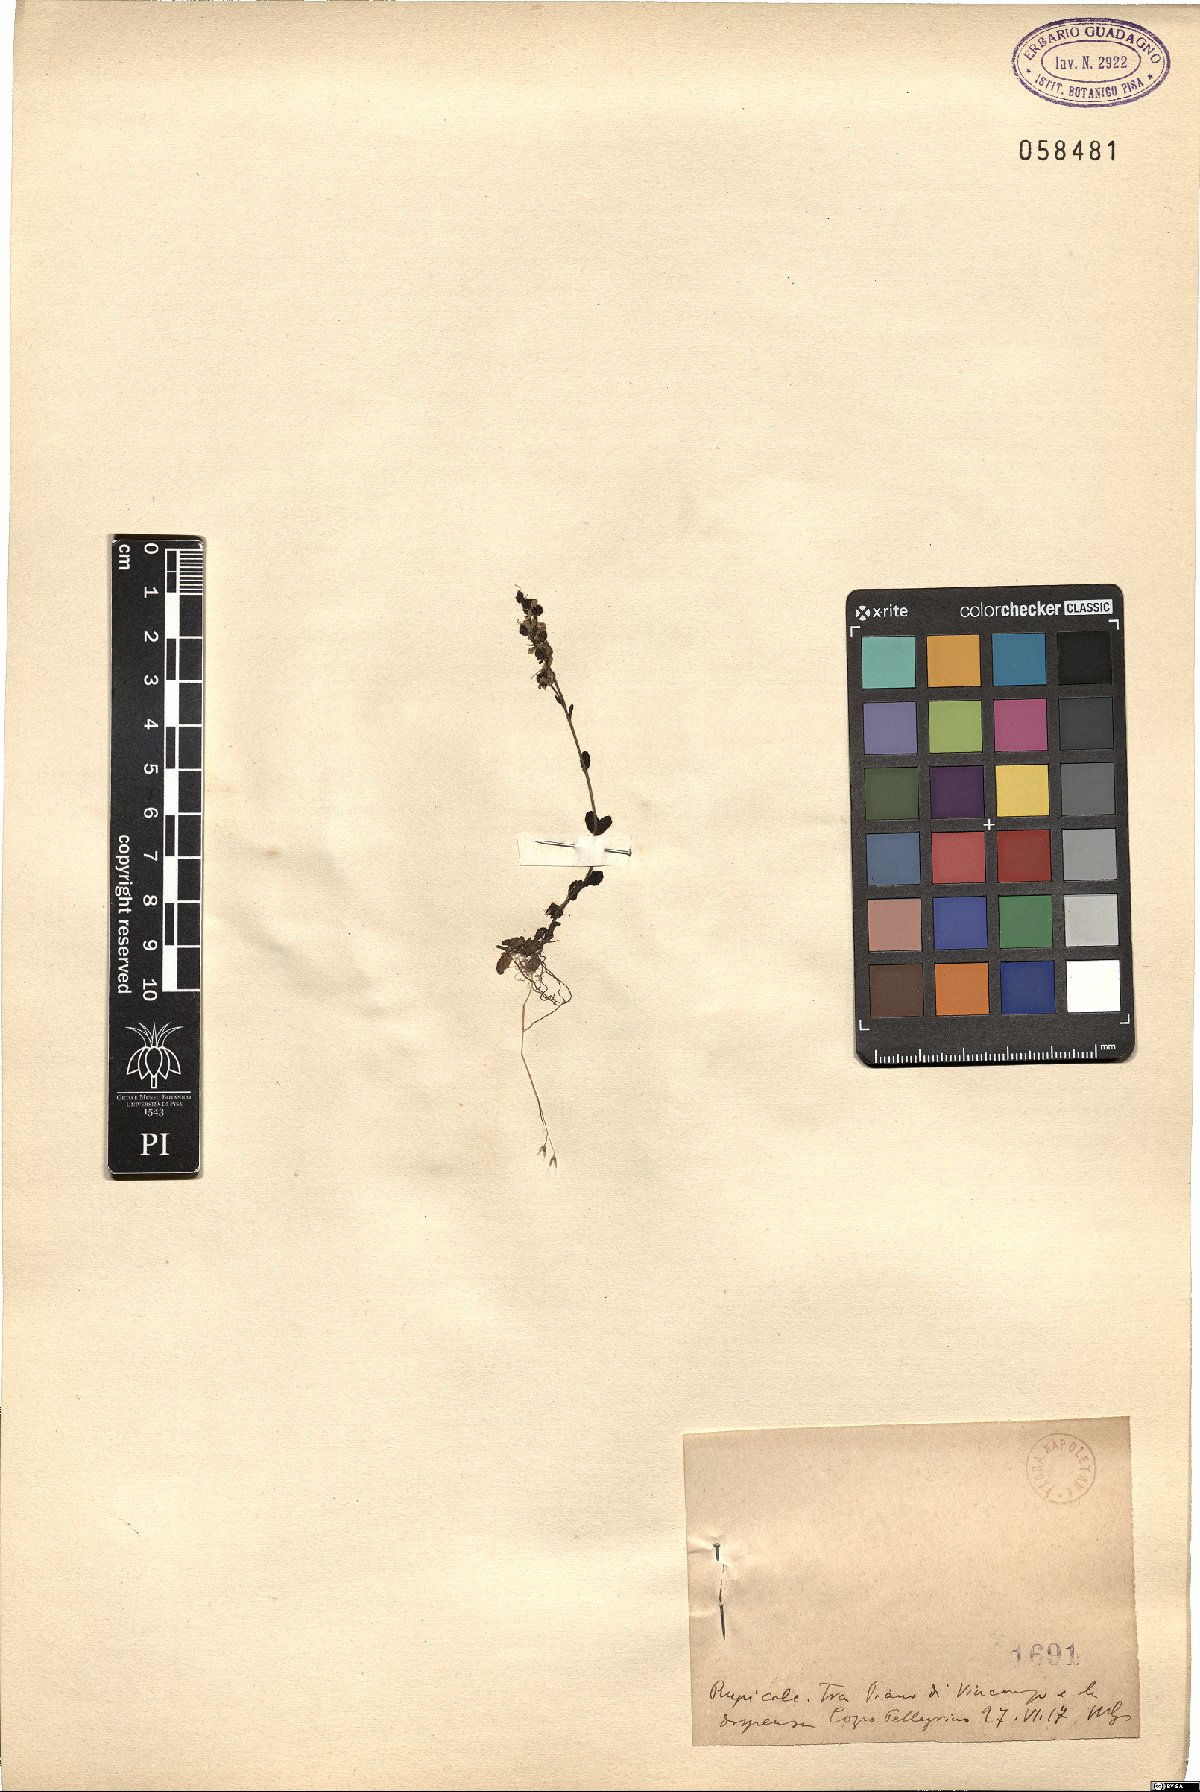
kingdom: Plantae
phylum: Tracheophyta
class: Magnoliopsida
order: Lamiales
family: Plantaginaceae
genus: Veronica
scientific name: Veronica
